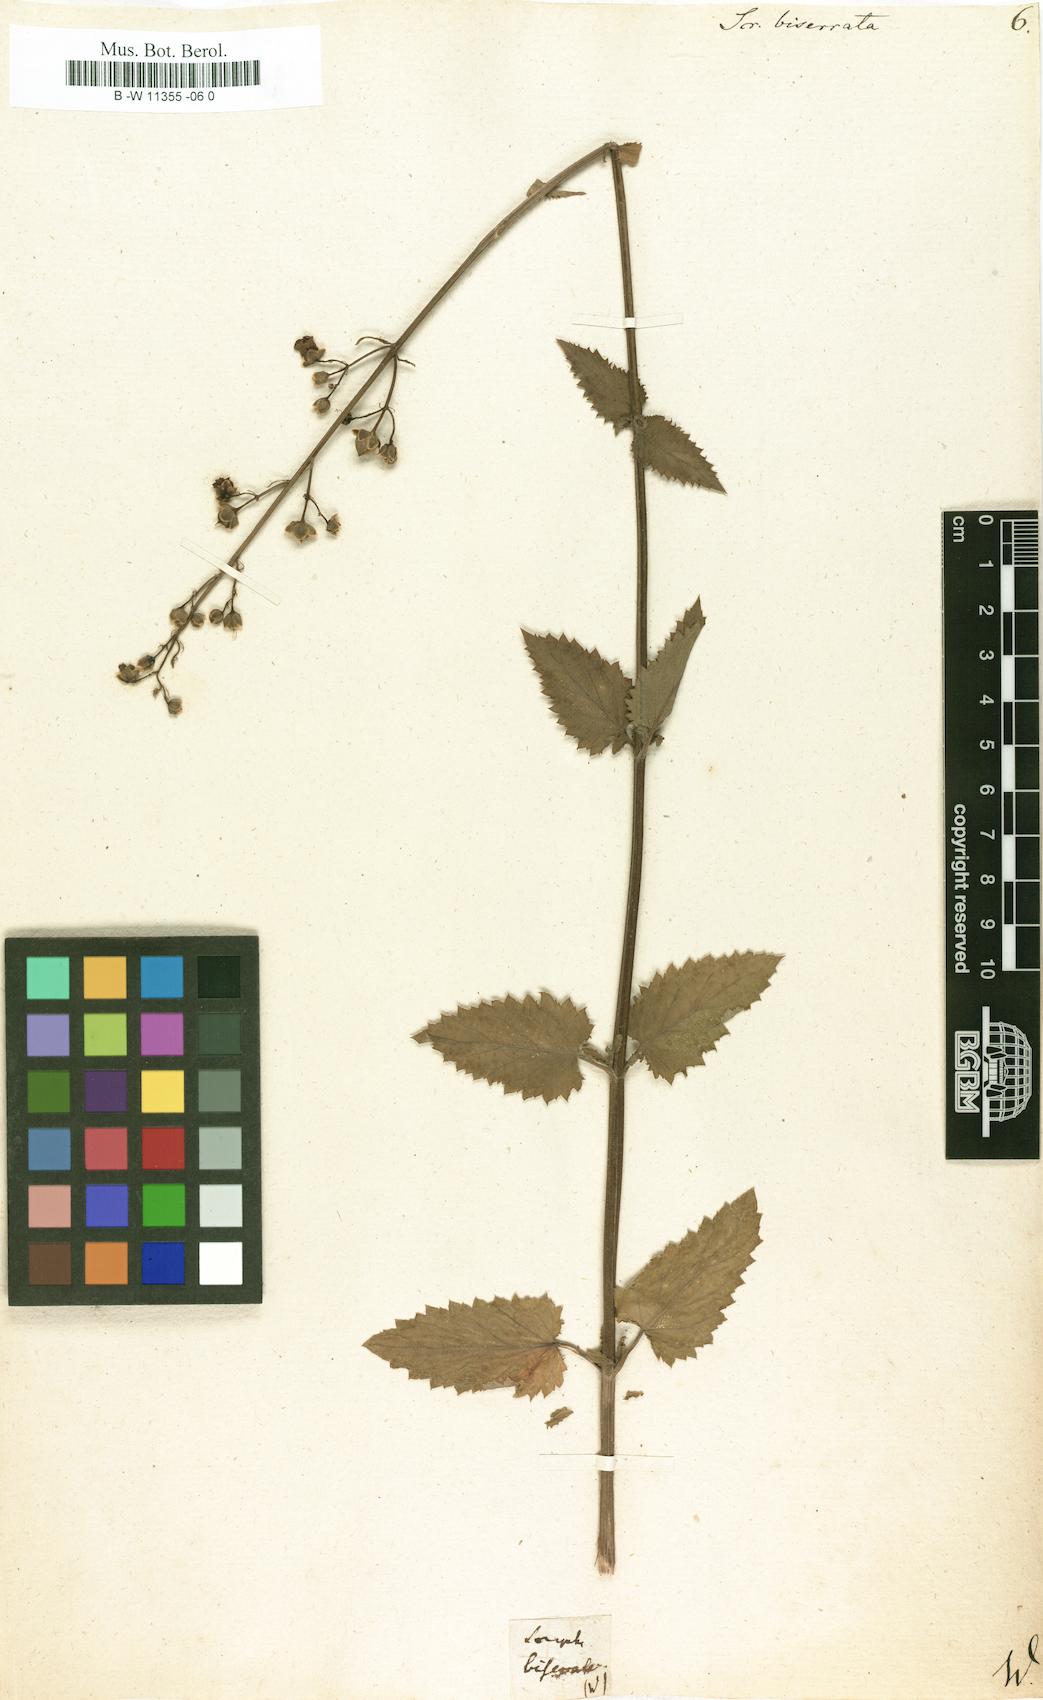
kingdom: Plantae
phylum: Tracheophyta
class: Magnoliopsida
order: Lamiales
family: Scrophulariaceae
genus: Scrophularia
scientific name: Scrophularia scorodonia
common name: Balm-leaved figwort
